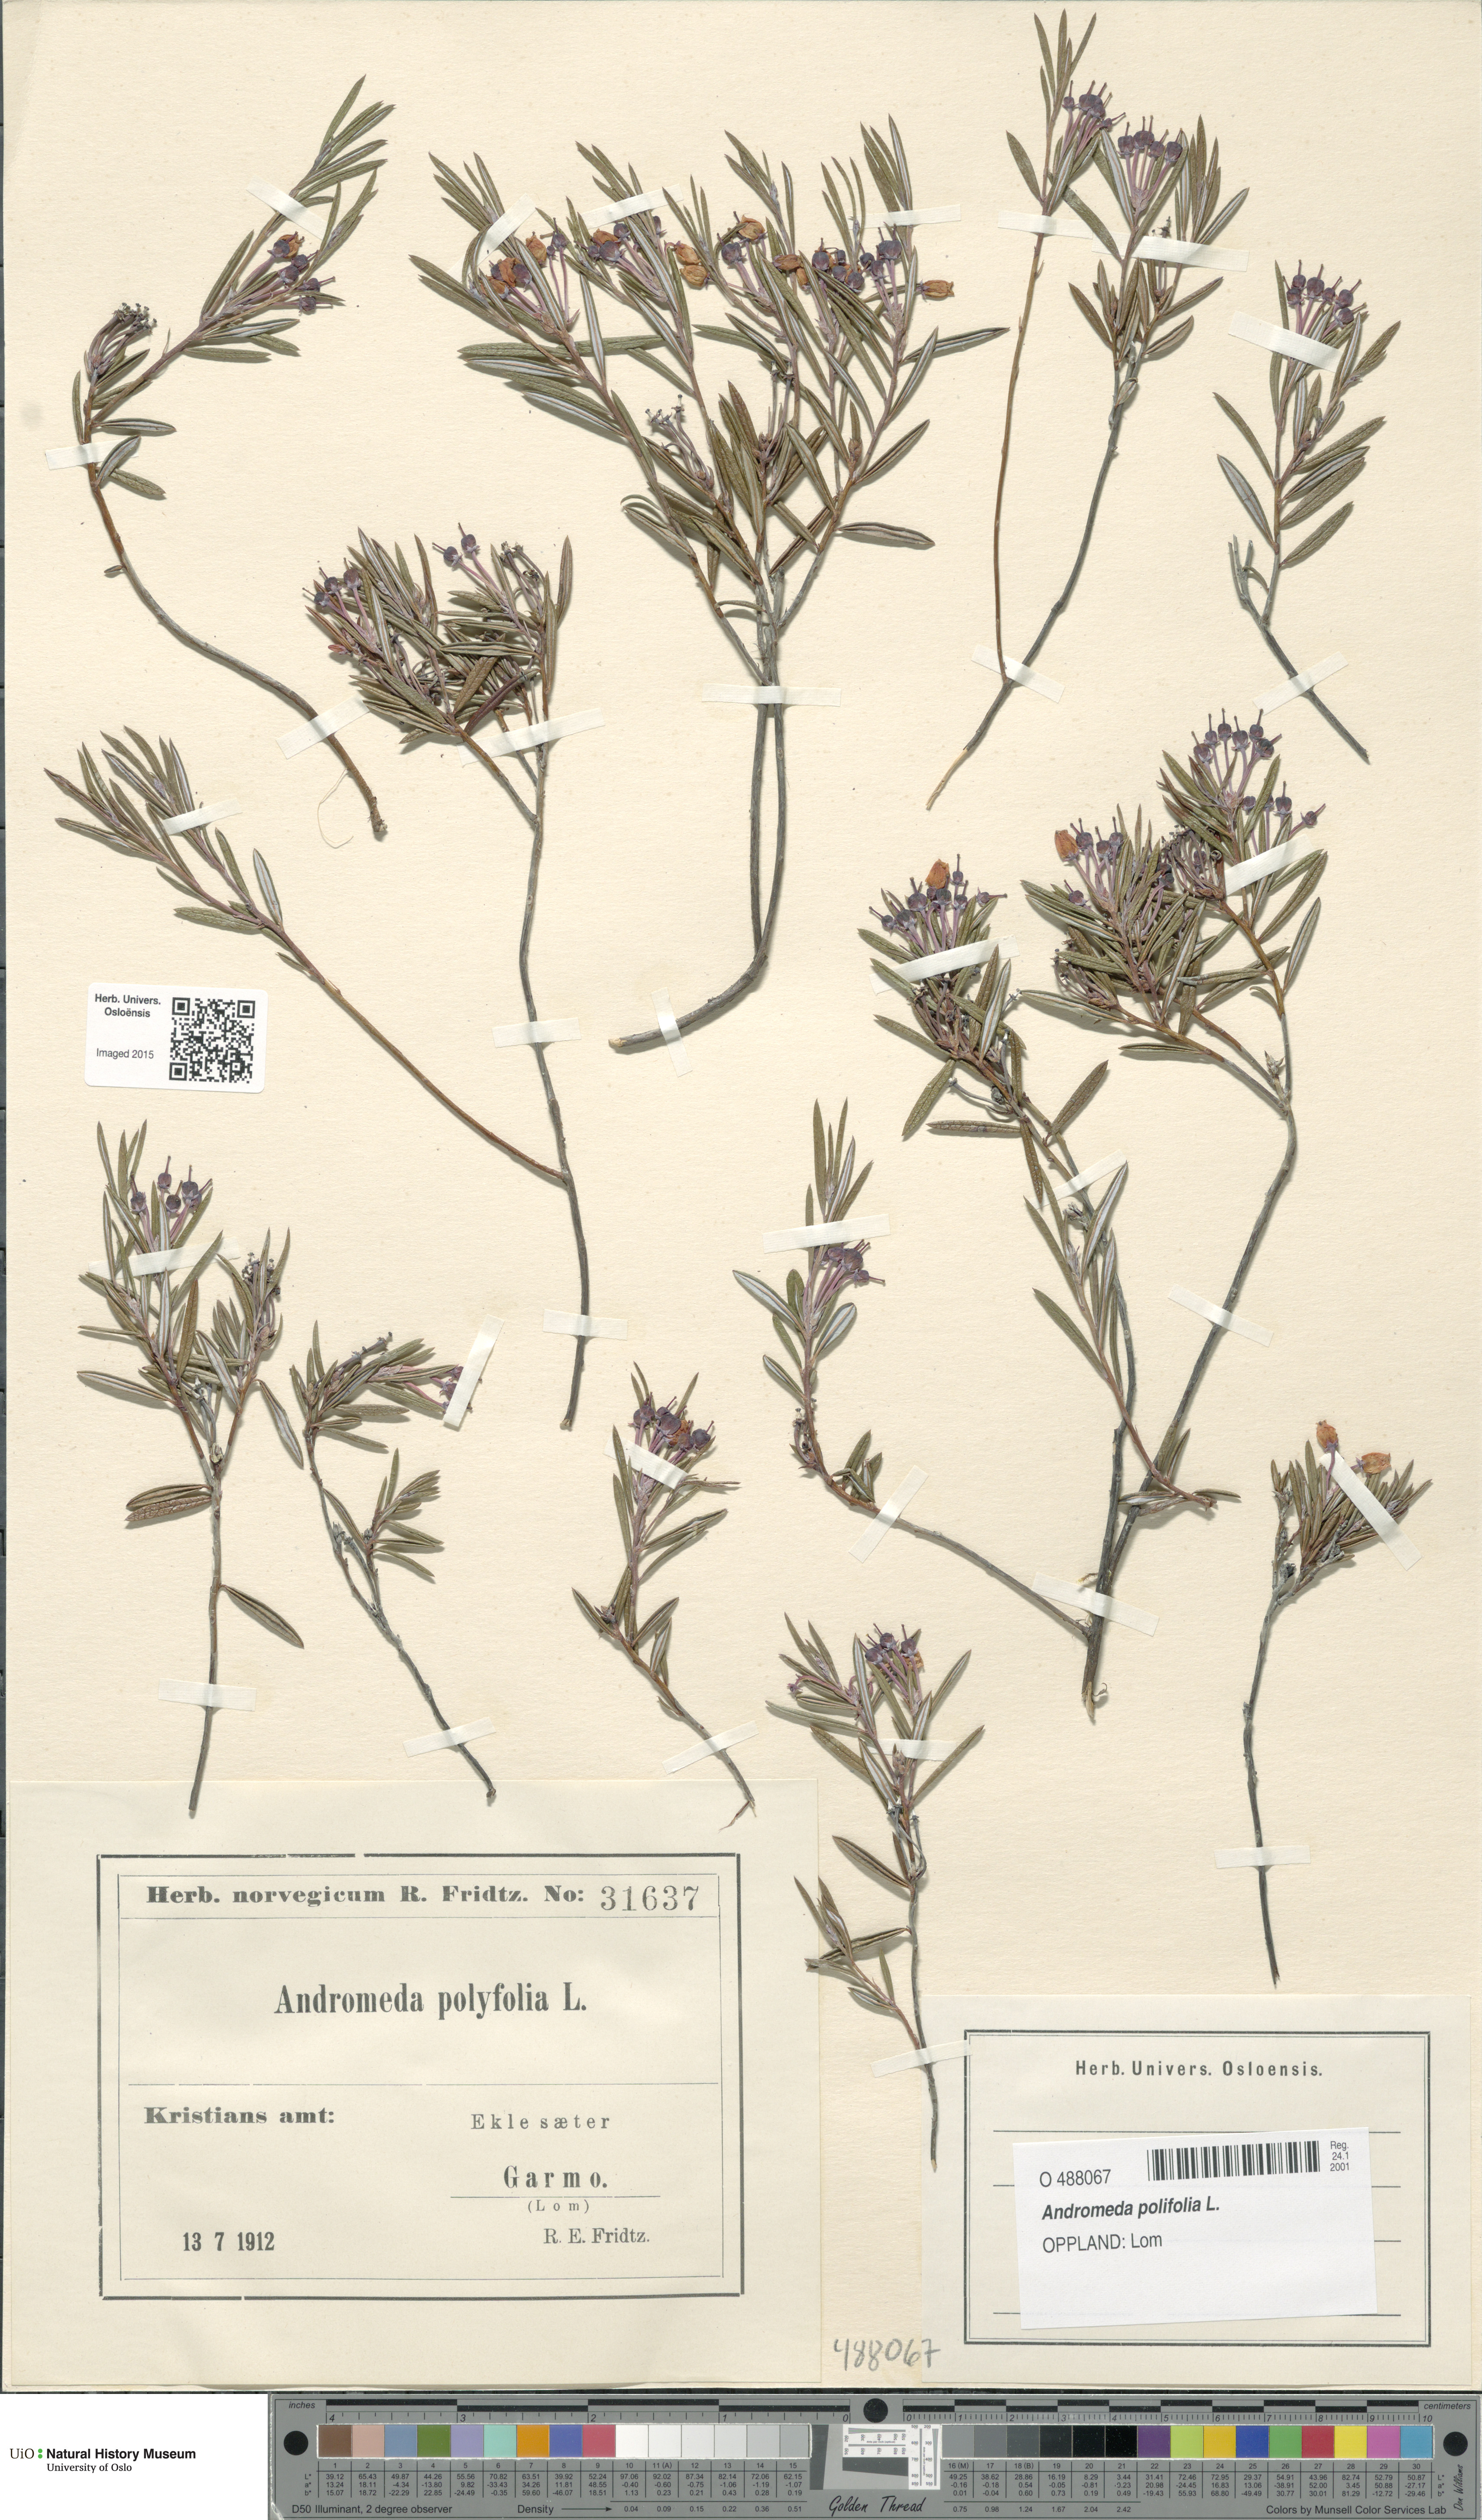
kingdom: Plantae
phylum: Tracheophyta
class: Magnoliopsida
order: Ericales
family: Ericaceae
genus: Andromeda
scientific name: Andromeda polifolia
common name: Bog-rosemary
